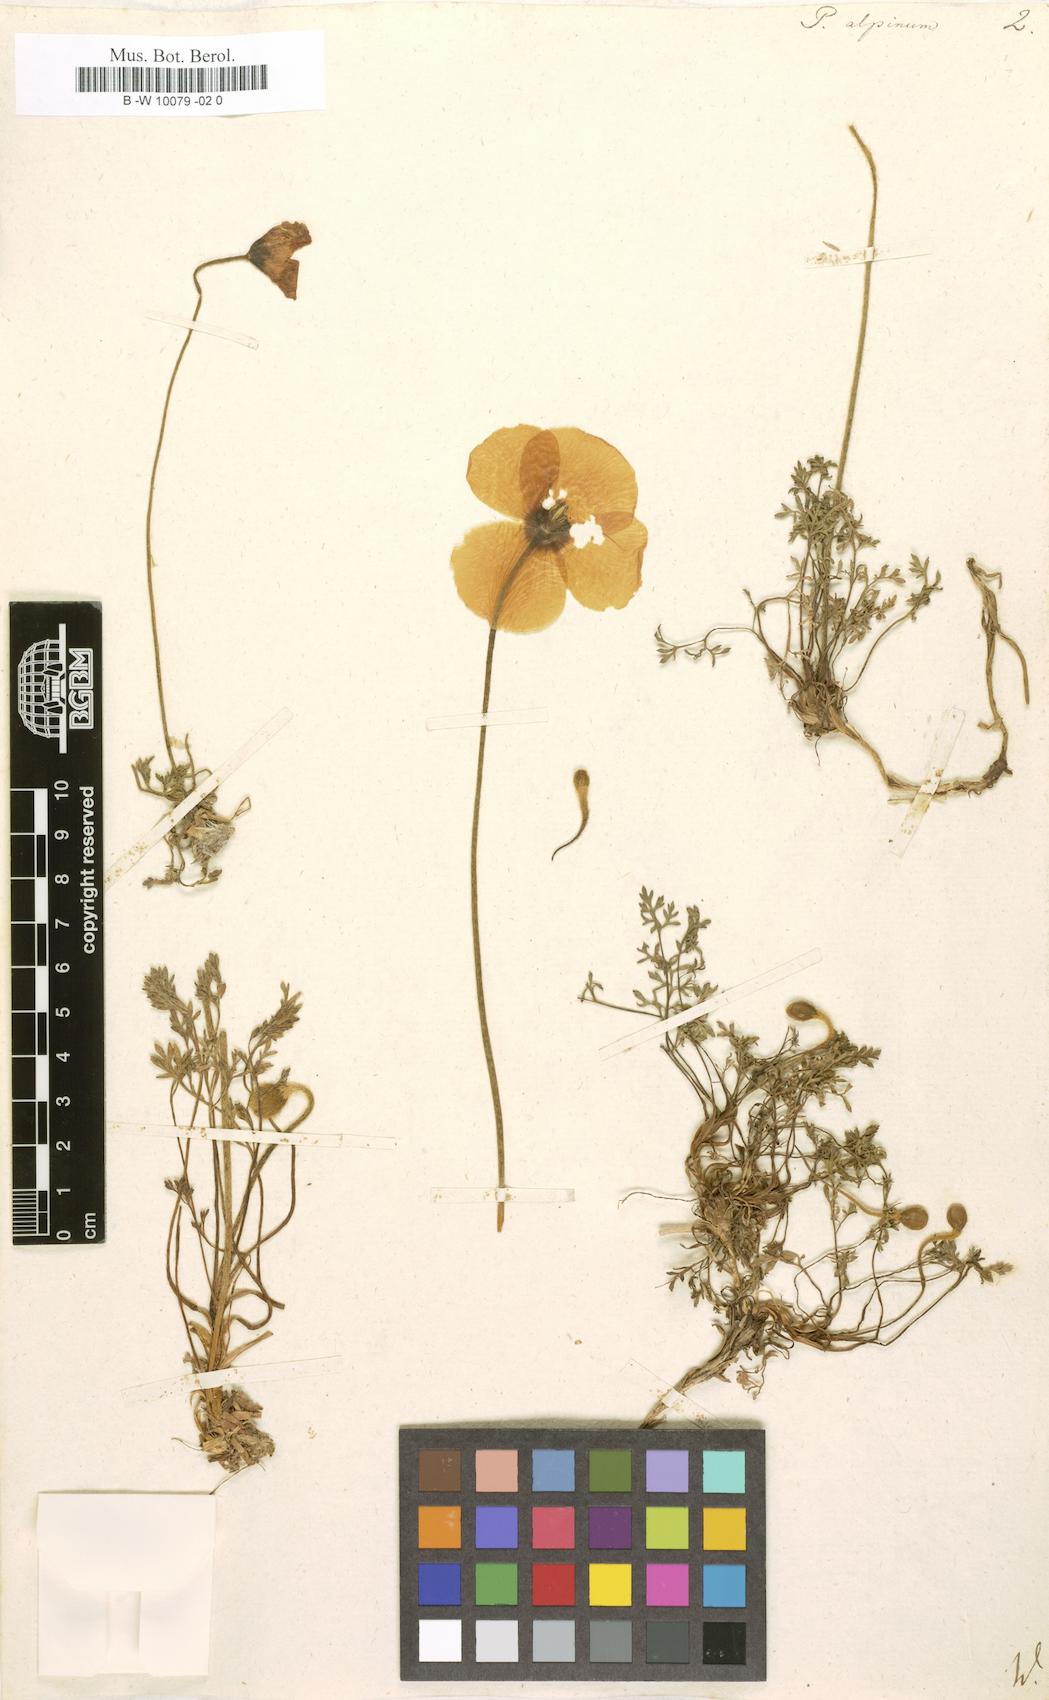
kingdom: Plantae
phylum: Tracheophyta
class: Magnoliopsida
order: Ranunculales
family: Papaveraceae
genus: Papaver
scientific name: Papaver alpinum
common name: Austrian poppy
